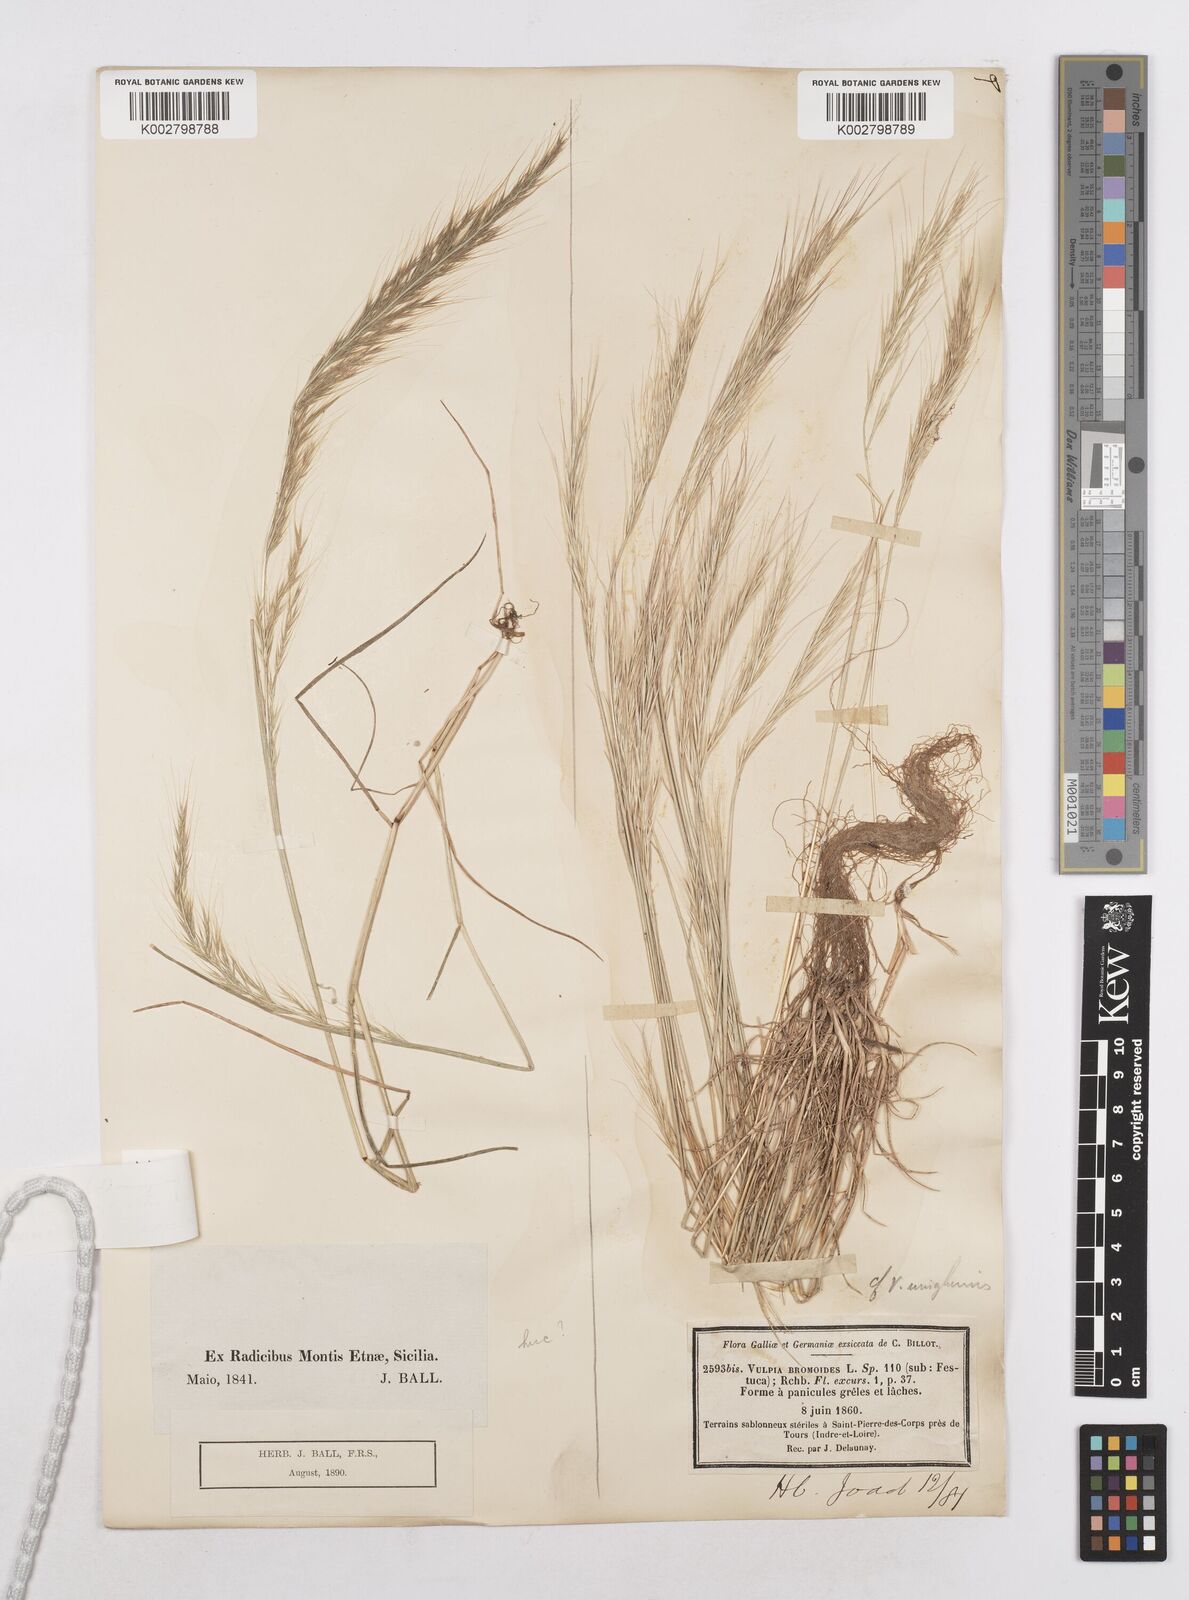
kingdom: Plantae
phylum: Tracheophyta
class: Liliopsida
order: Poales
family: Poaceae
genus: Festuca
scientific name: Festuca fasciculata
